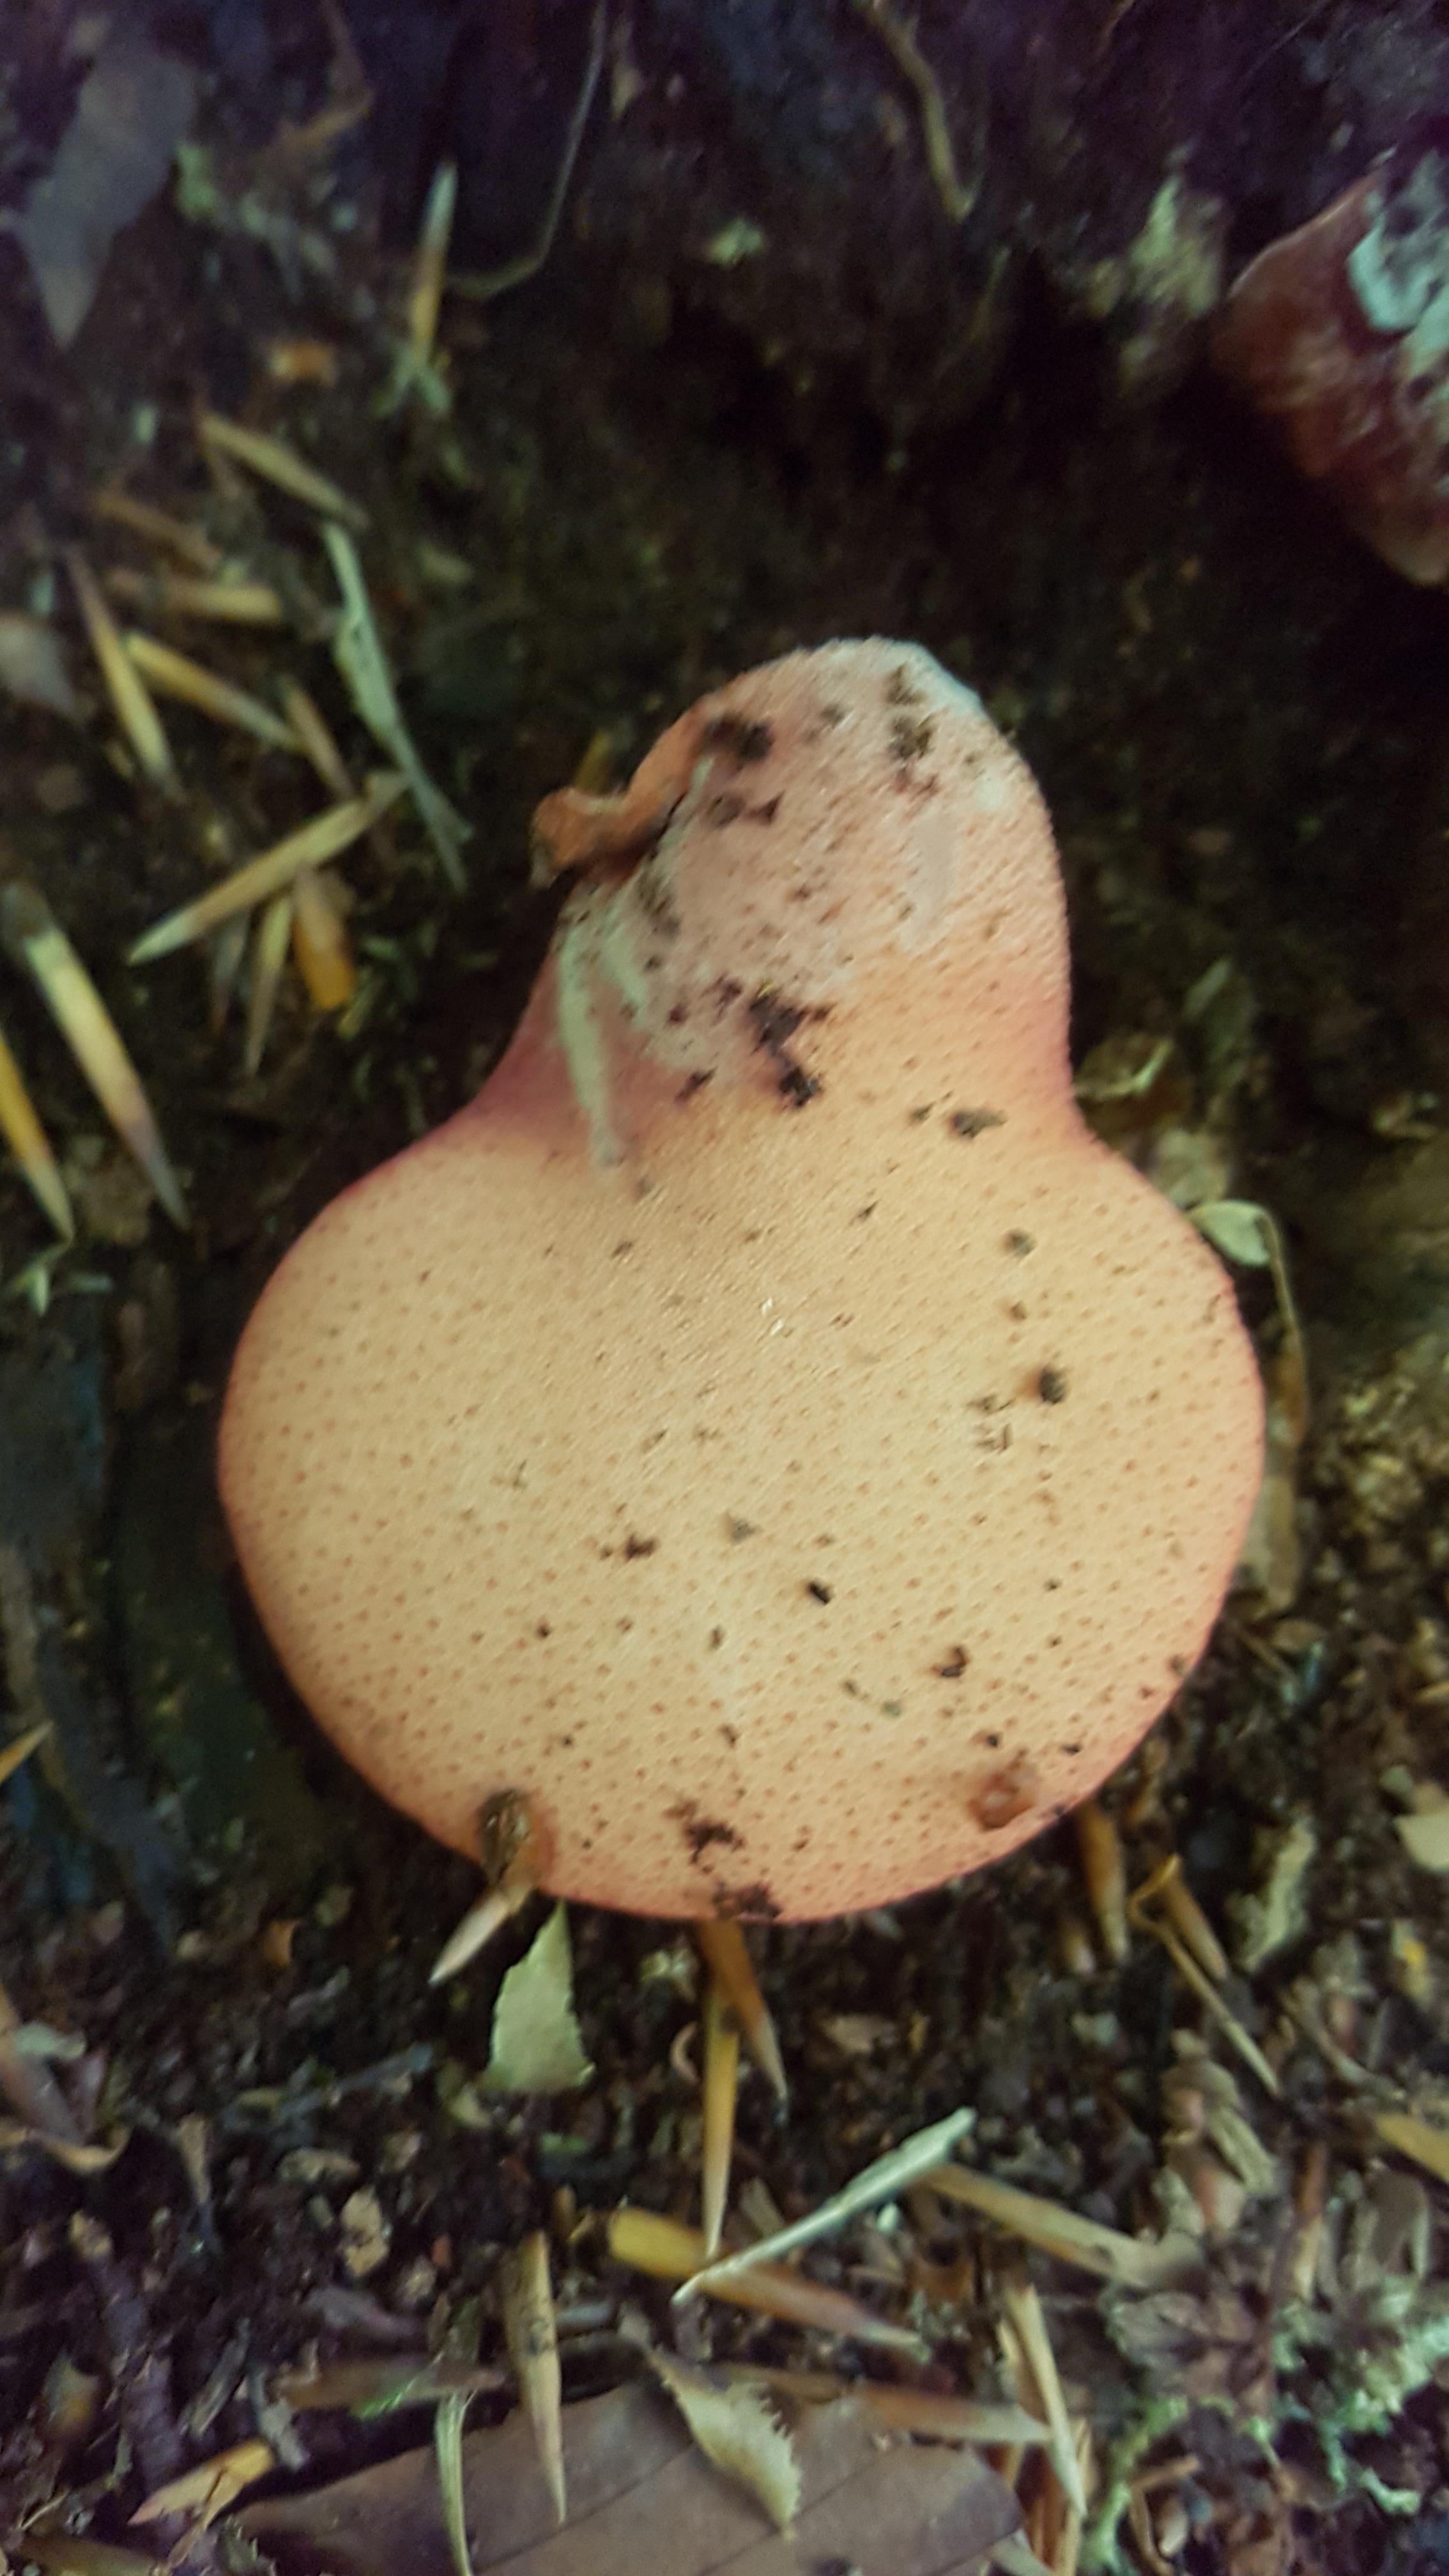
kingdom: Fungi
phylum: Basidiomycota
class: Agaricomycetes
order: Agaricales
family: Fistulinaceae
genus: Fistulina
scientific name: Fistulina hepatica
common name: oksetunge
